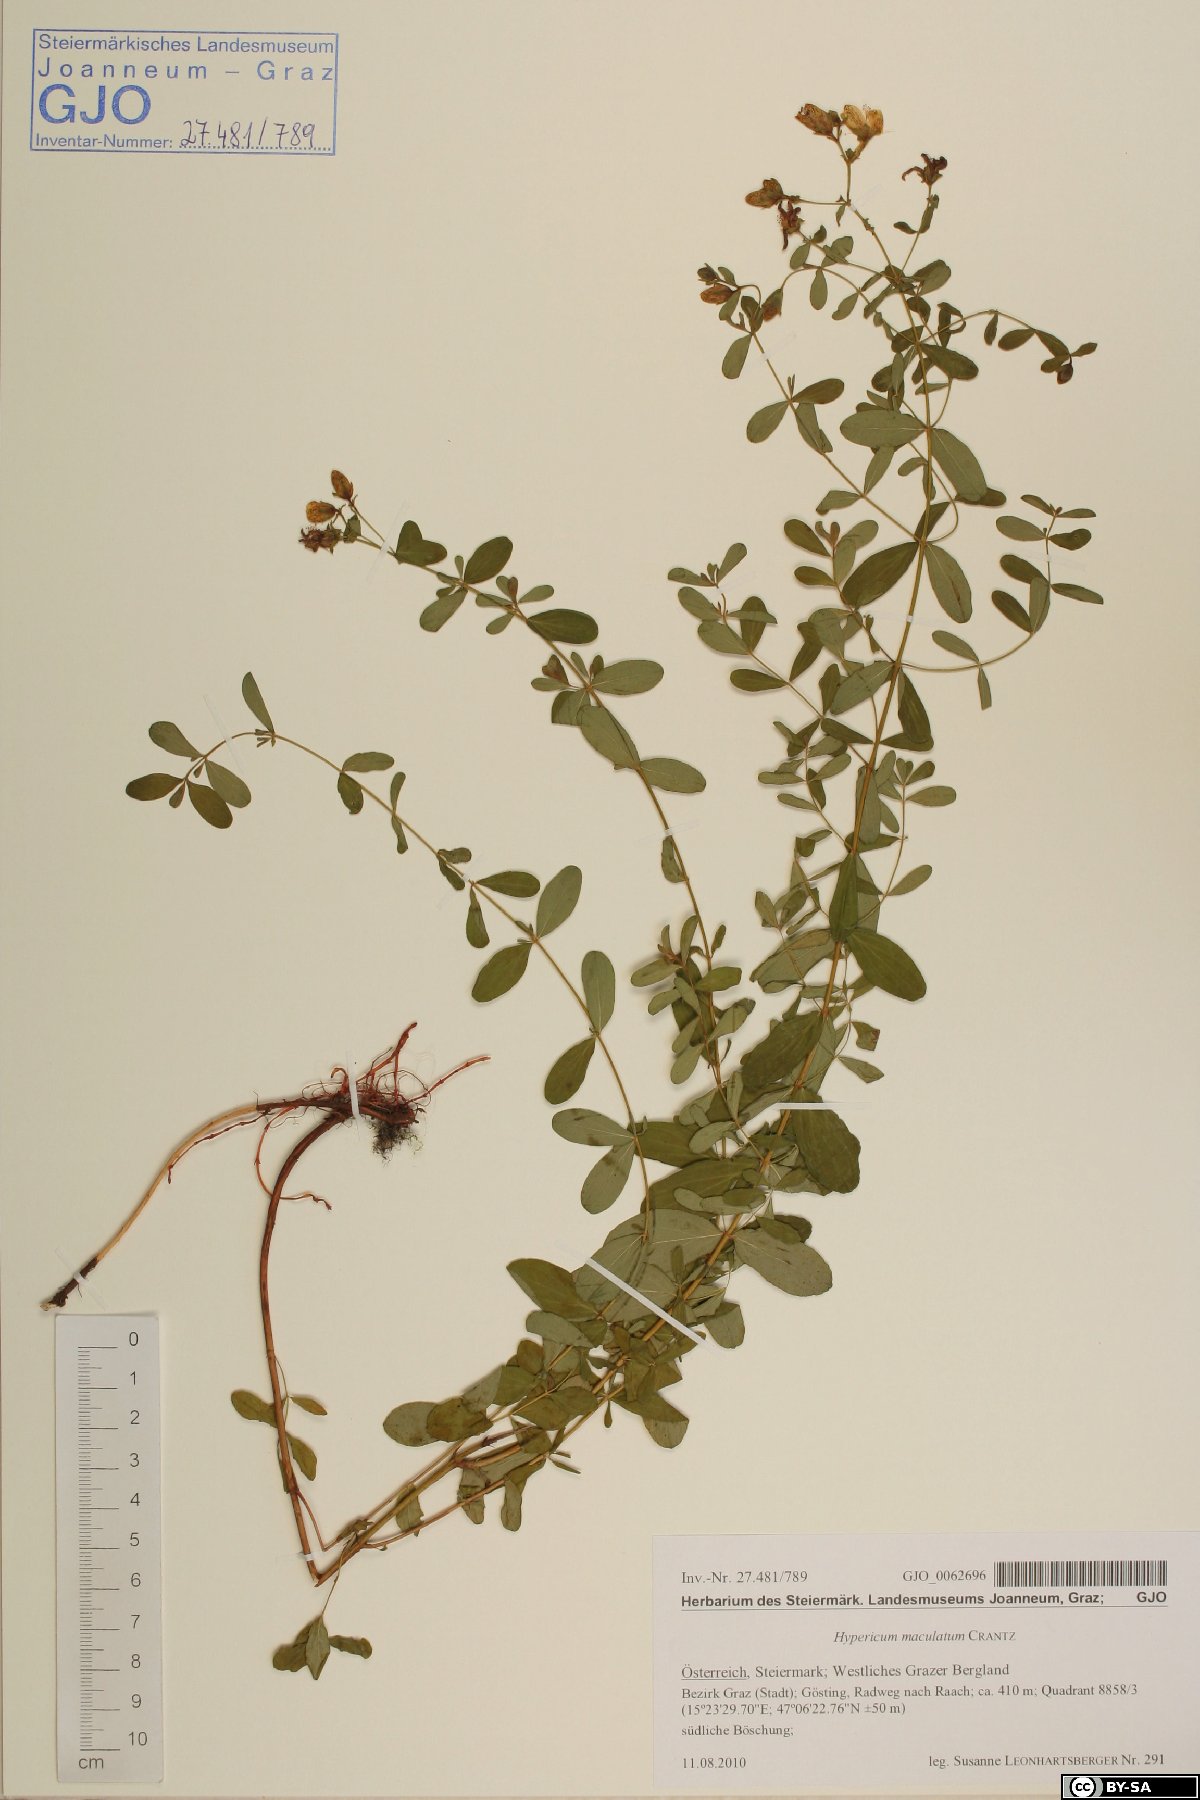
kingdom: Plantae
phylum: Tracheophyta
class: Magnoliopsida
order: Malpighiales
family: Hypericaceae
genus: Hypericum
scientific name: Hypericum maculatum
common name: Imperforate st. john's-wort
